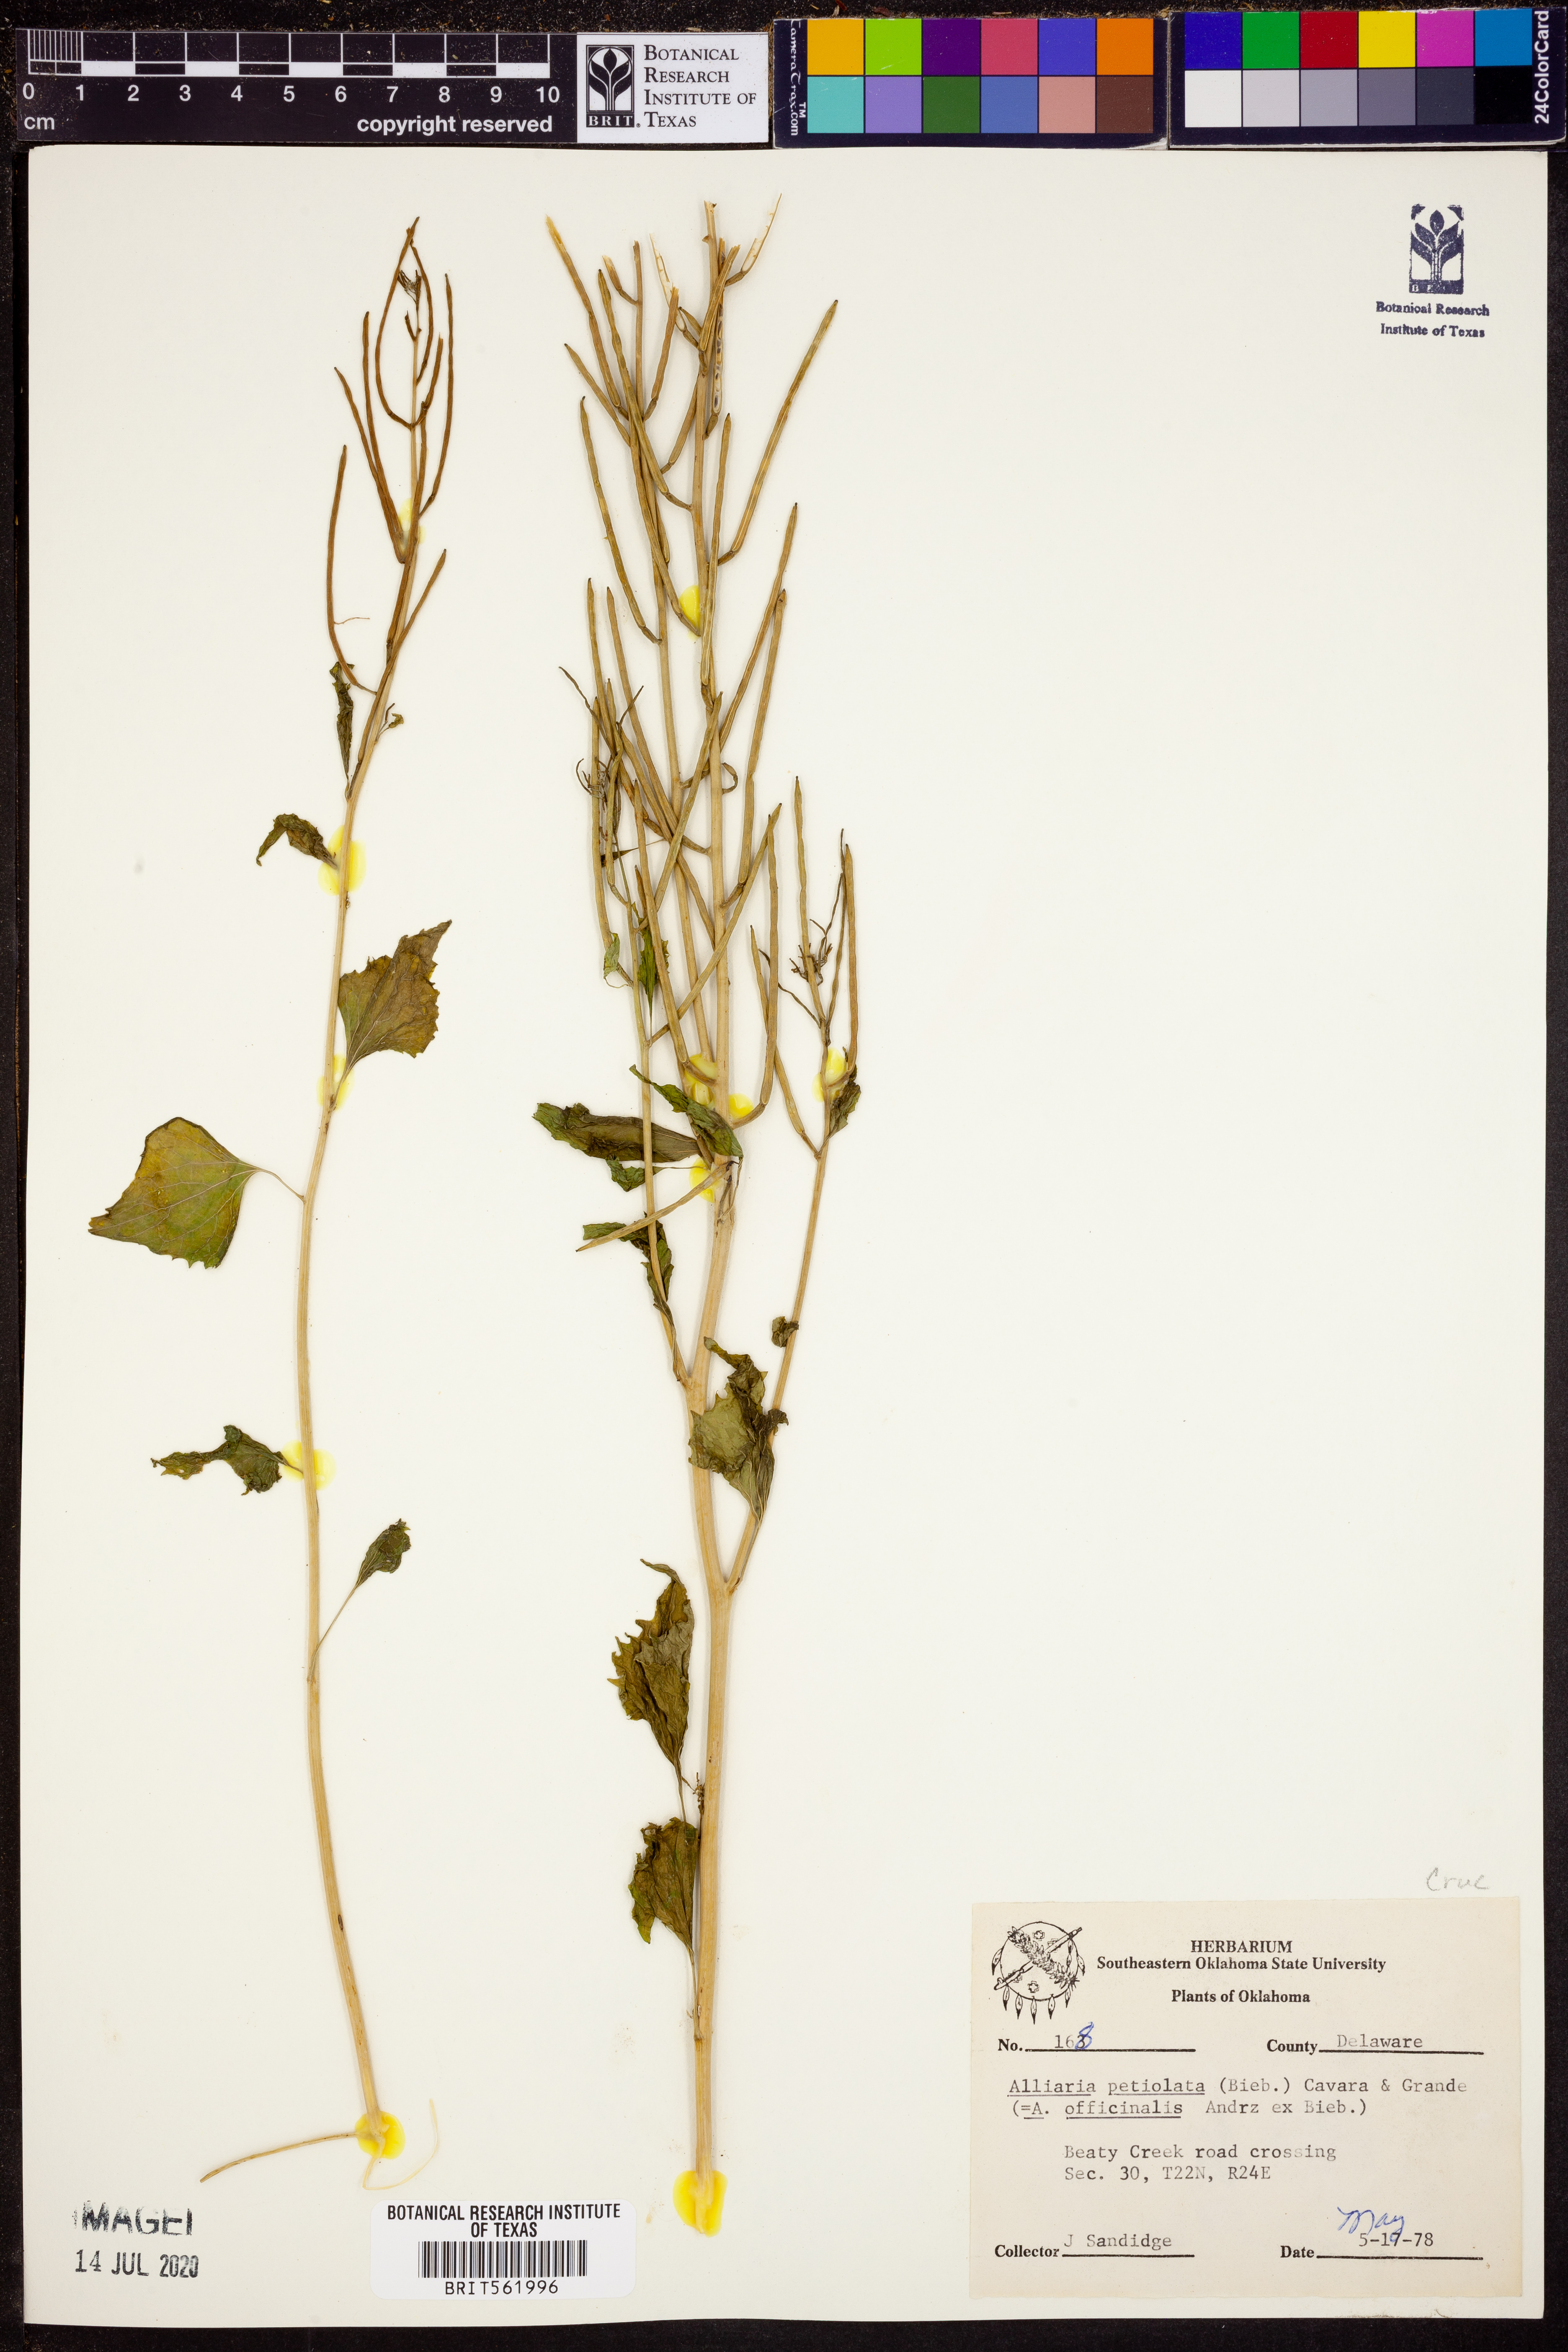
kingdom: Plantae
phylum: Tracheophyta
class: Magnoliopsida
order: Brassicales
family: Brassicaceae
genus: Alliaria
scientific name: Alliaria petiolata
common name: Garlic mustard
